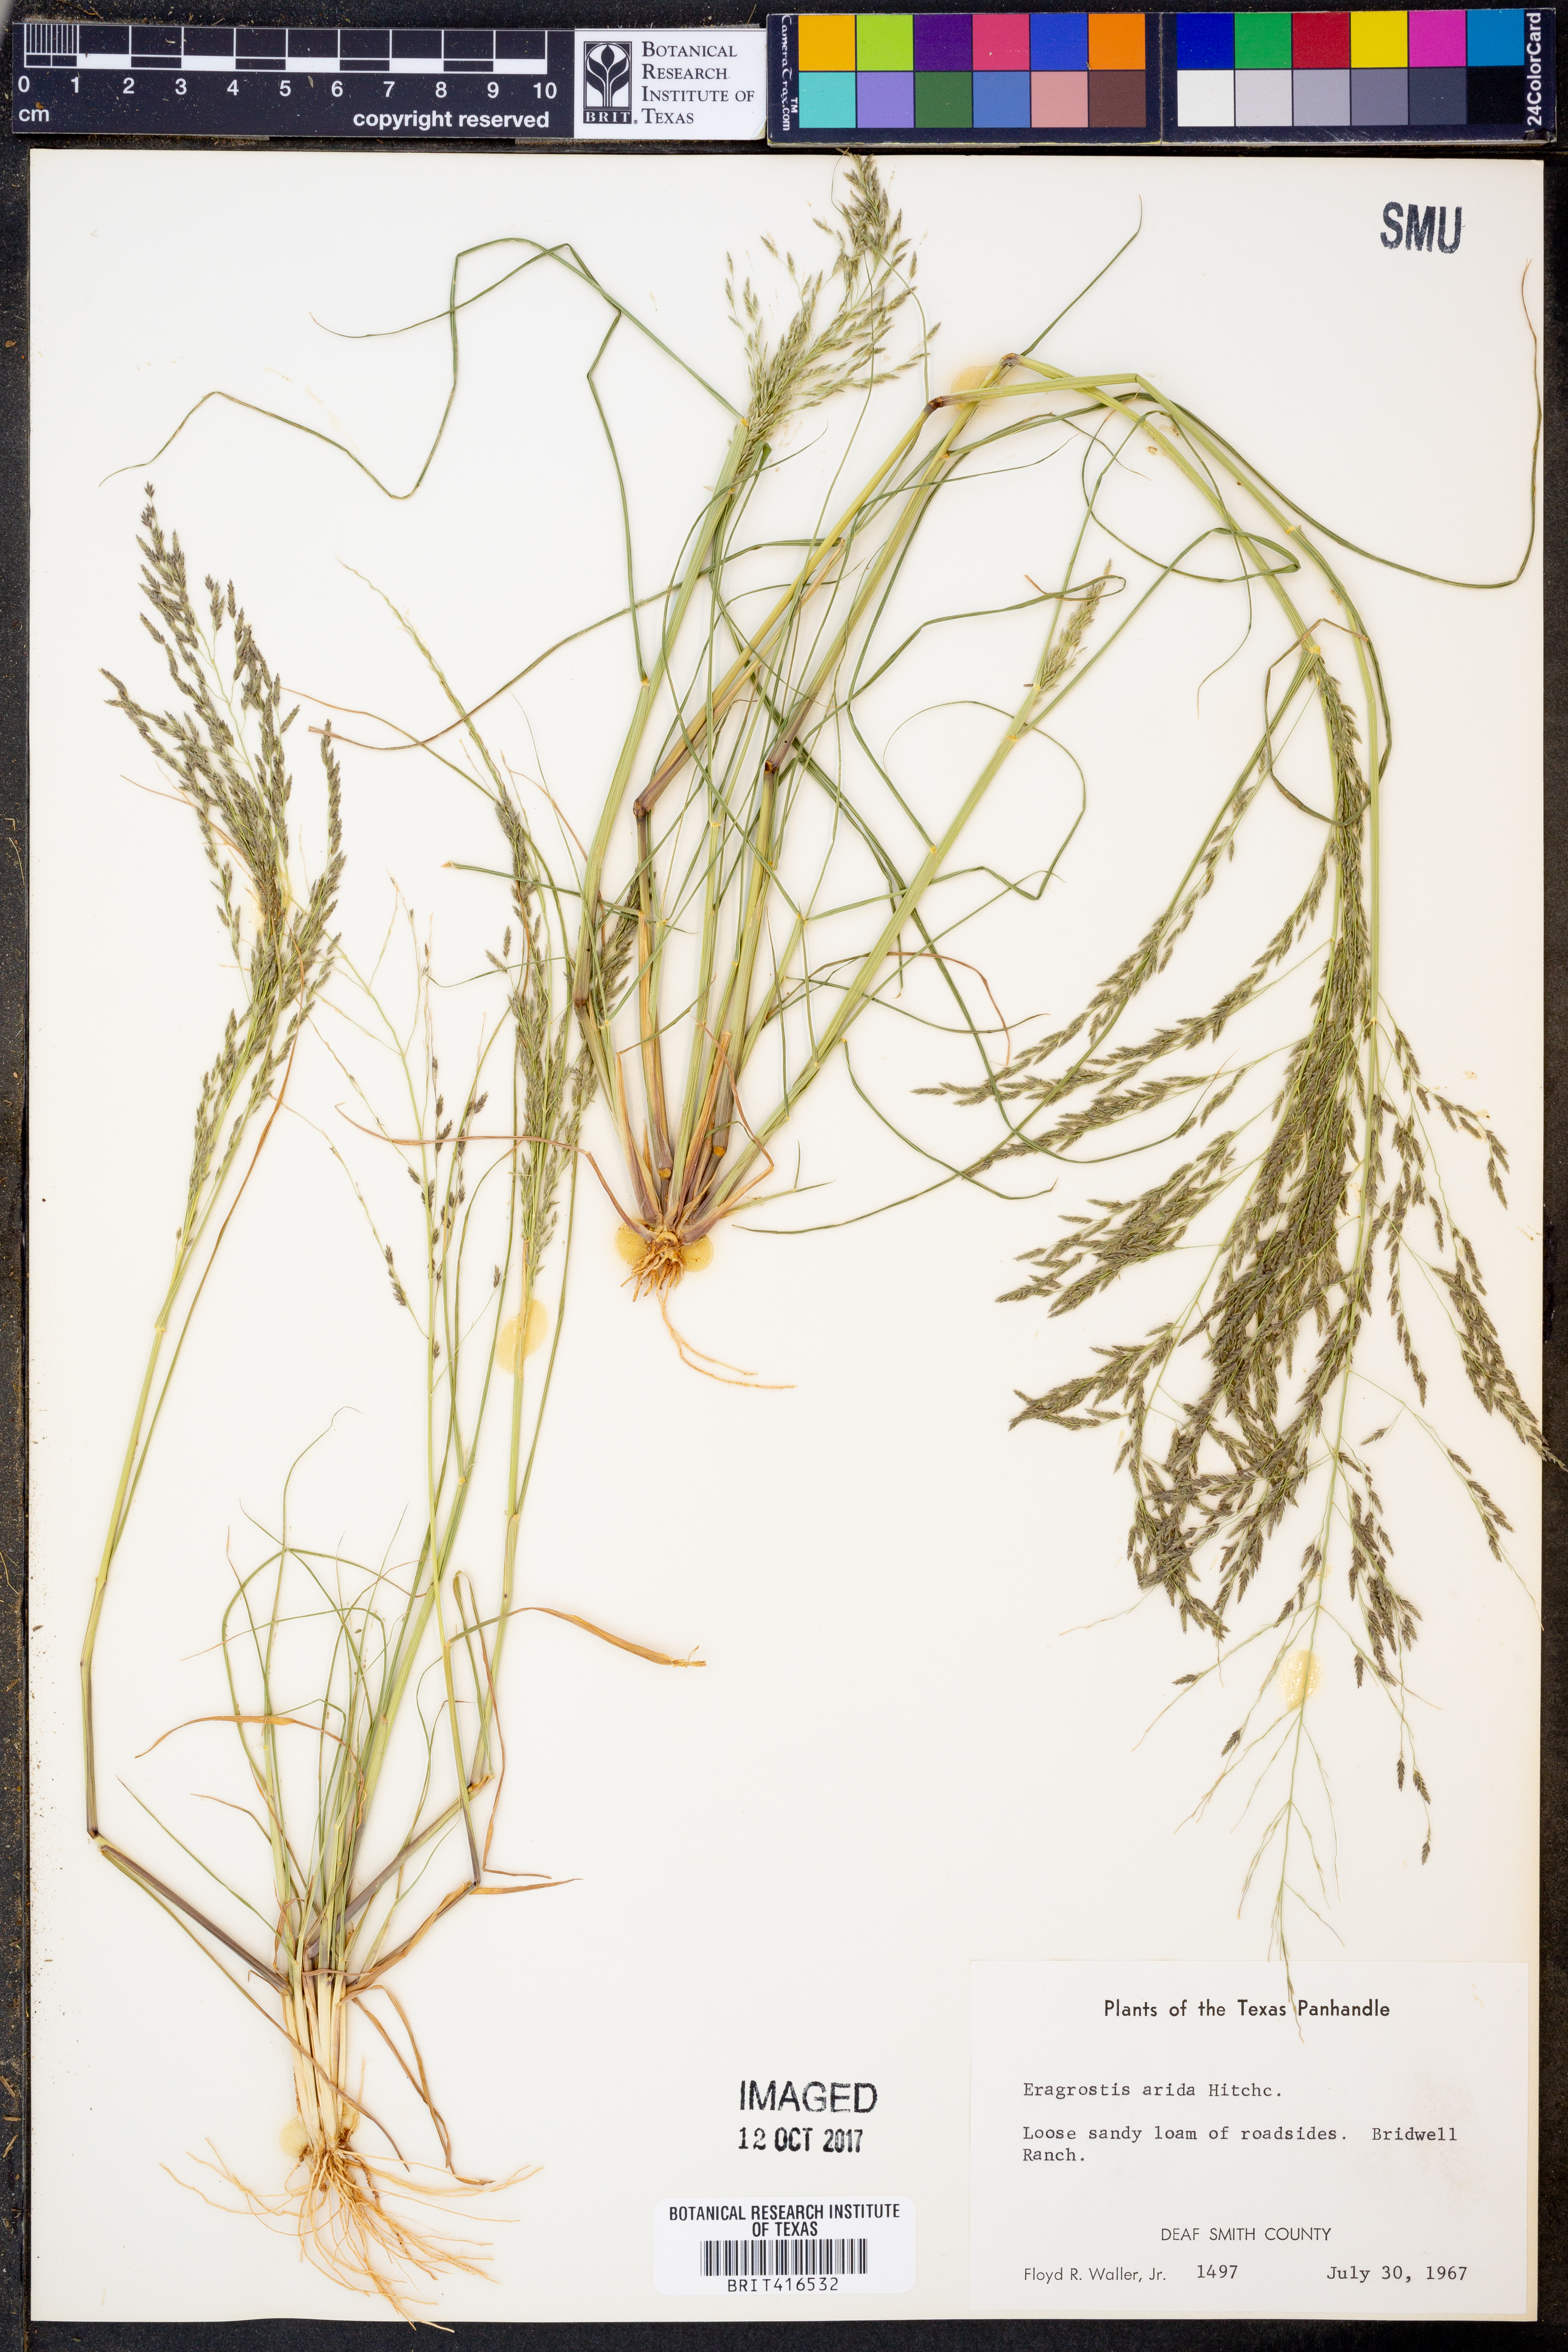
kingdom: Plantae
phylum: Tracheophyta
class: Liliopsida
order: Poales
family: Poaceae
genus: Eragrostis
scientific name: Eragrostis tephrosanthos
